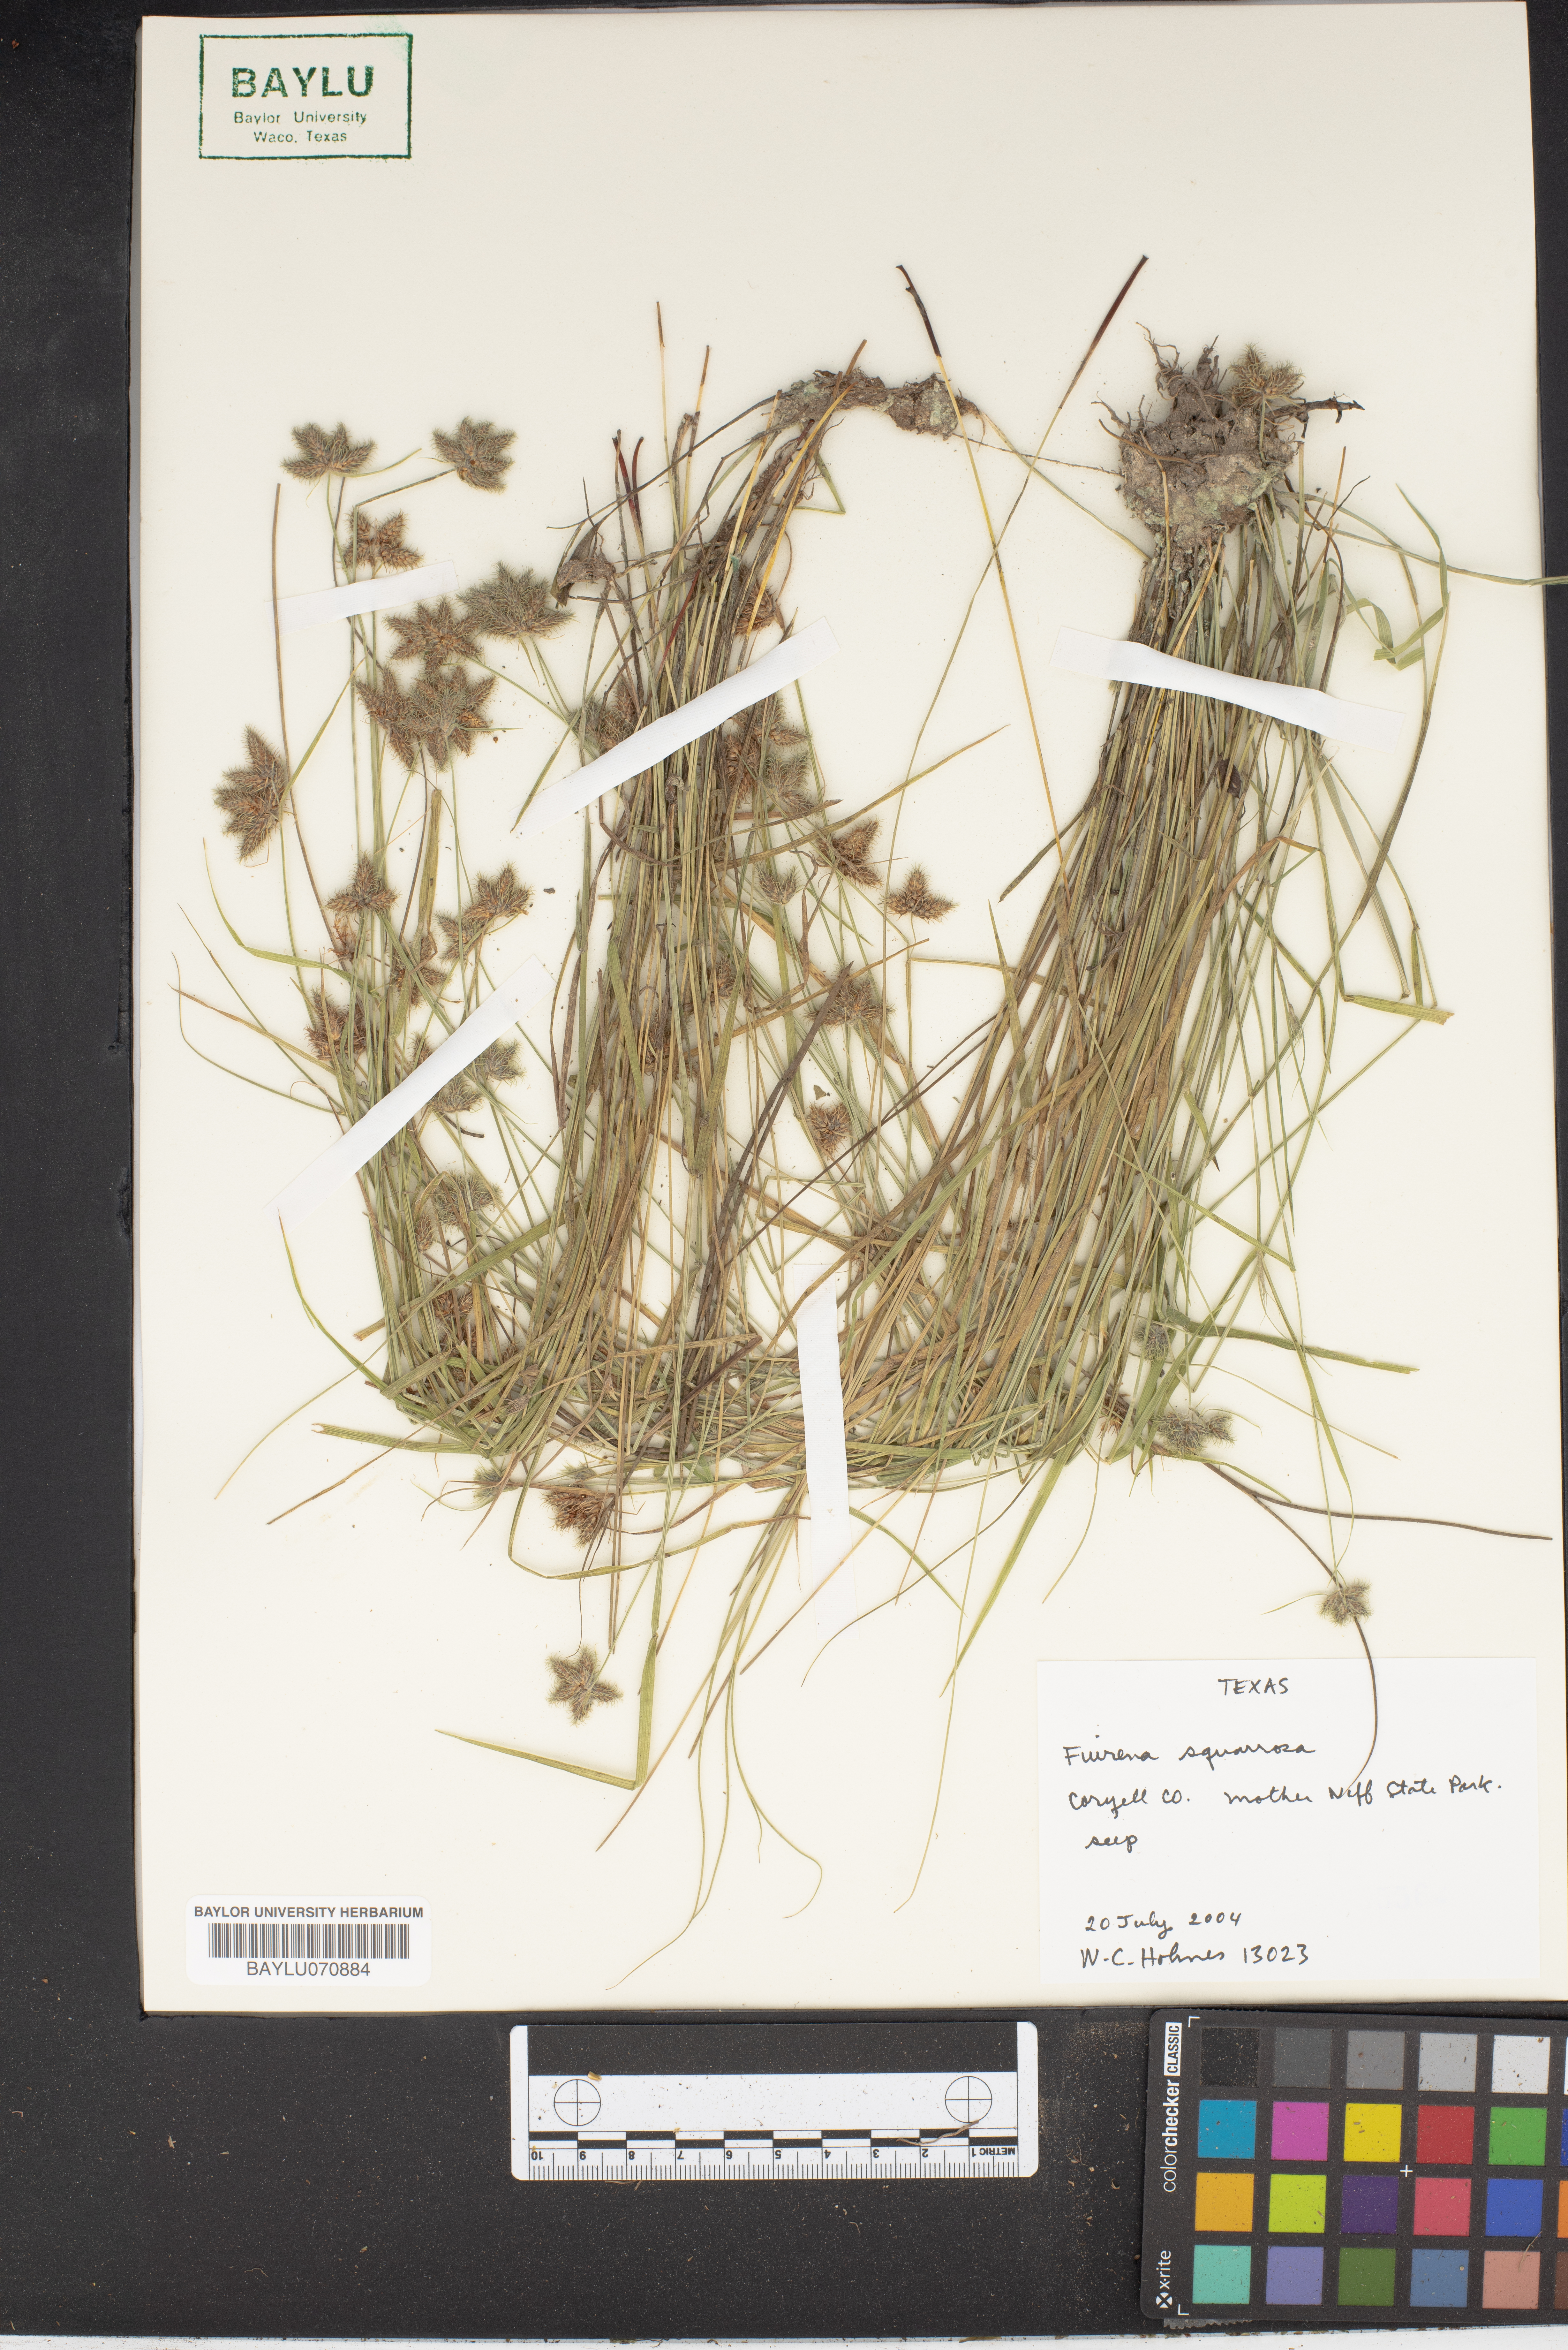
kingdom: Plantae
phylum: Tracheophyta
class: Liliopsida
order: Poales
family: Cyperaceae
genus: Fuirena
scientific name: Fuirena squarrosa
